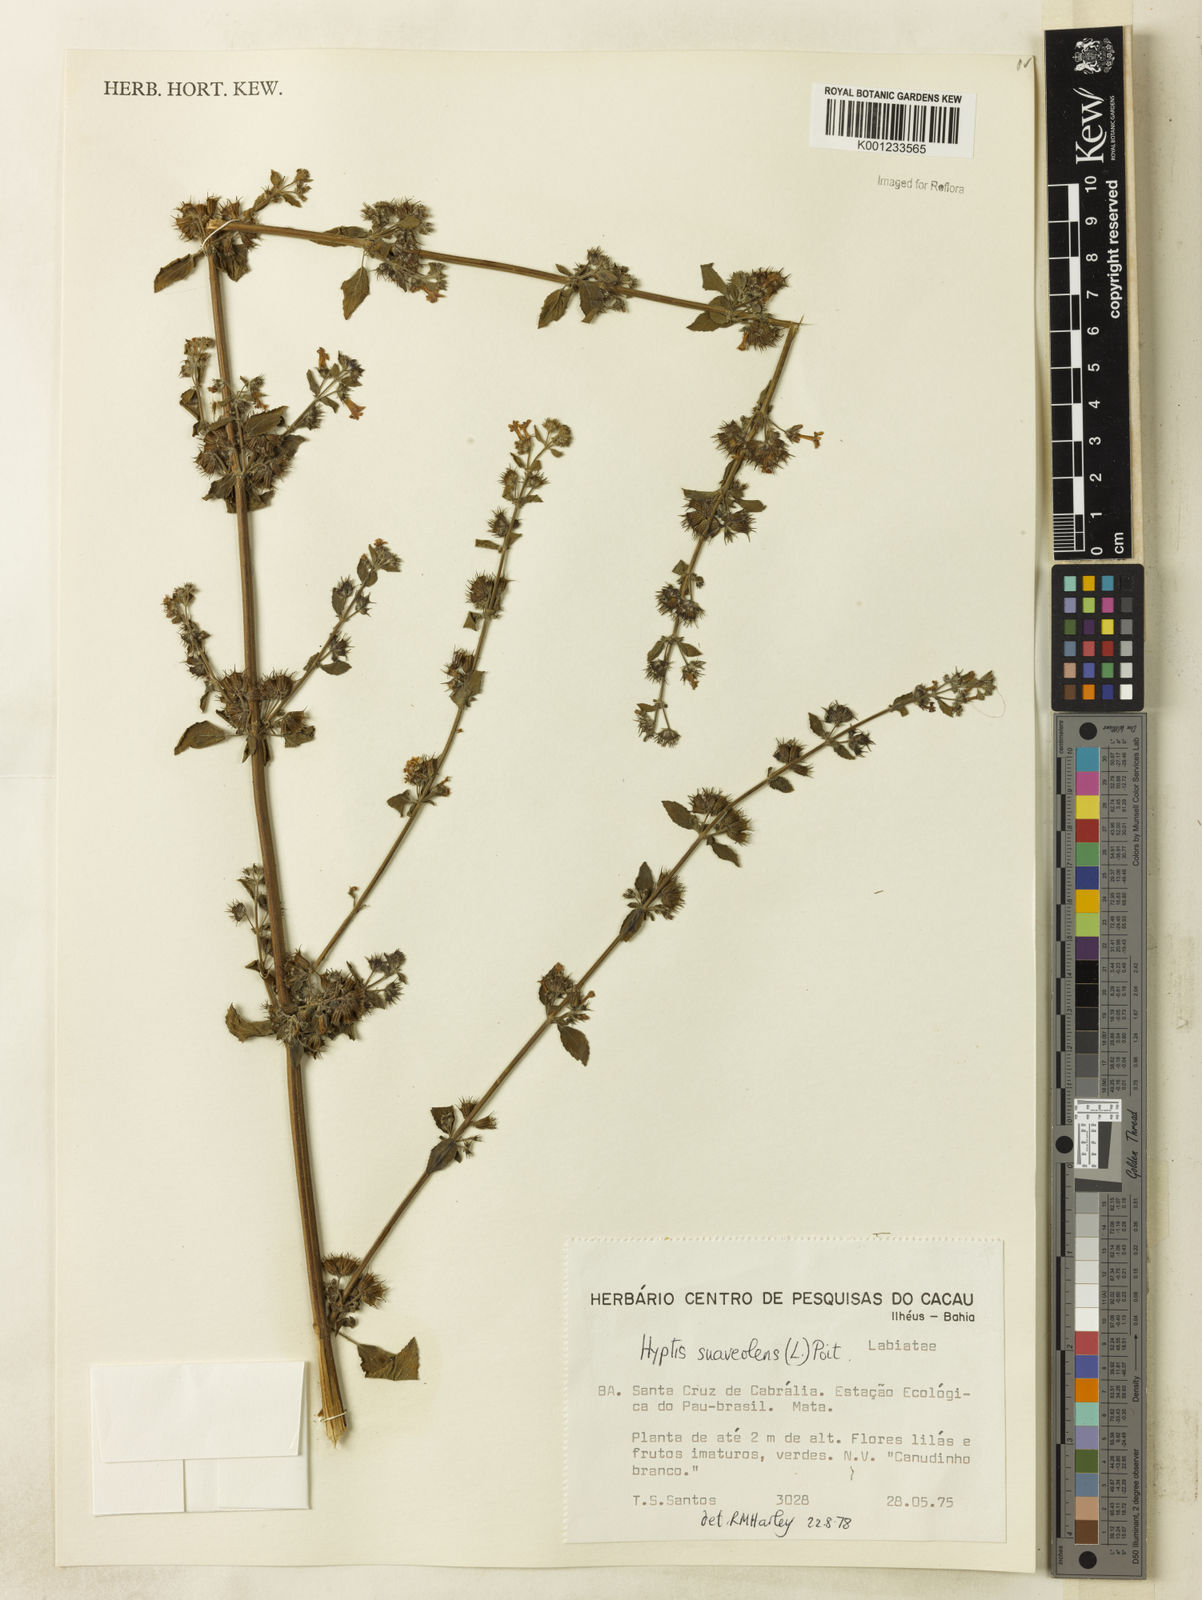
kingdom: Plantae
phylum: Tracheophyta
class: Magnoliopsida
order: Lamiales
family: Lamiaceae
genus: Mesosphaerum
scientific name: Mesosphaerum suaveolens
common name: Pignut
